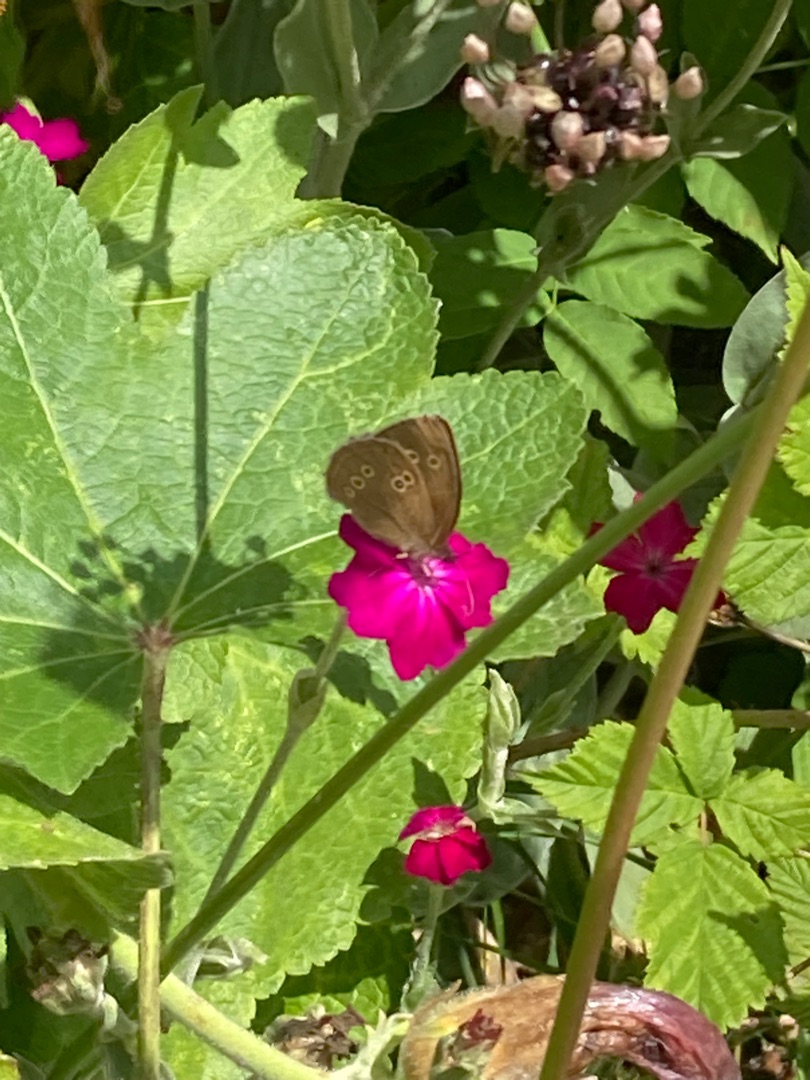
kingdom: Animalia
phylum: Arthropoda
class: Insecta
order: Lepidoptera
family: Nymphalidae
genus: Aphantopus
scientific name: Aphantopus hyperantus
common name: Engrandøje
